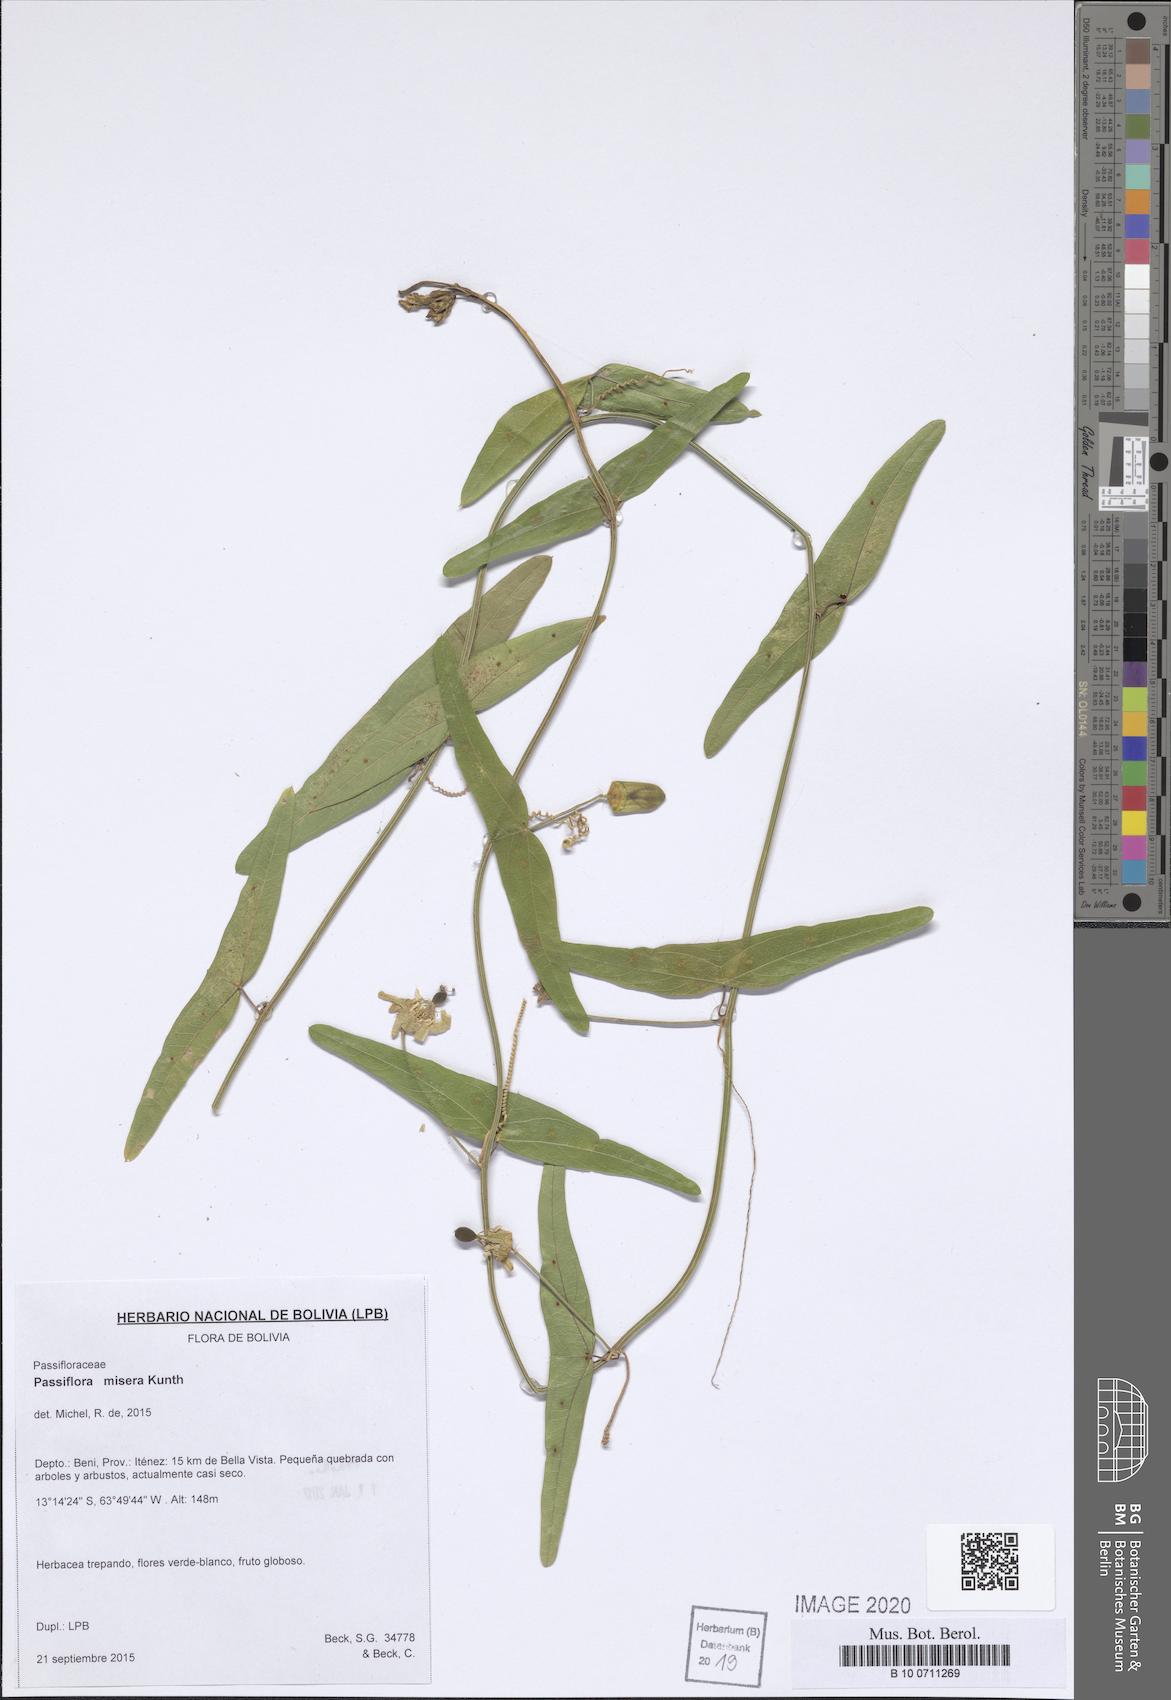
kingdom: Plantae
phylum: Tracheophyta
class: Magnoliopsida
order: Malpighiales
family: Passifloraceae
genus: Passiflora
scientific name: Passiflora misera
